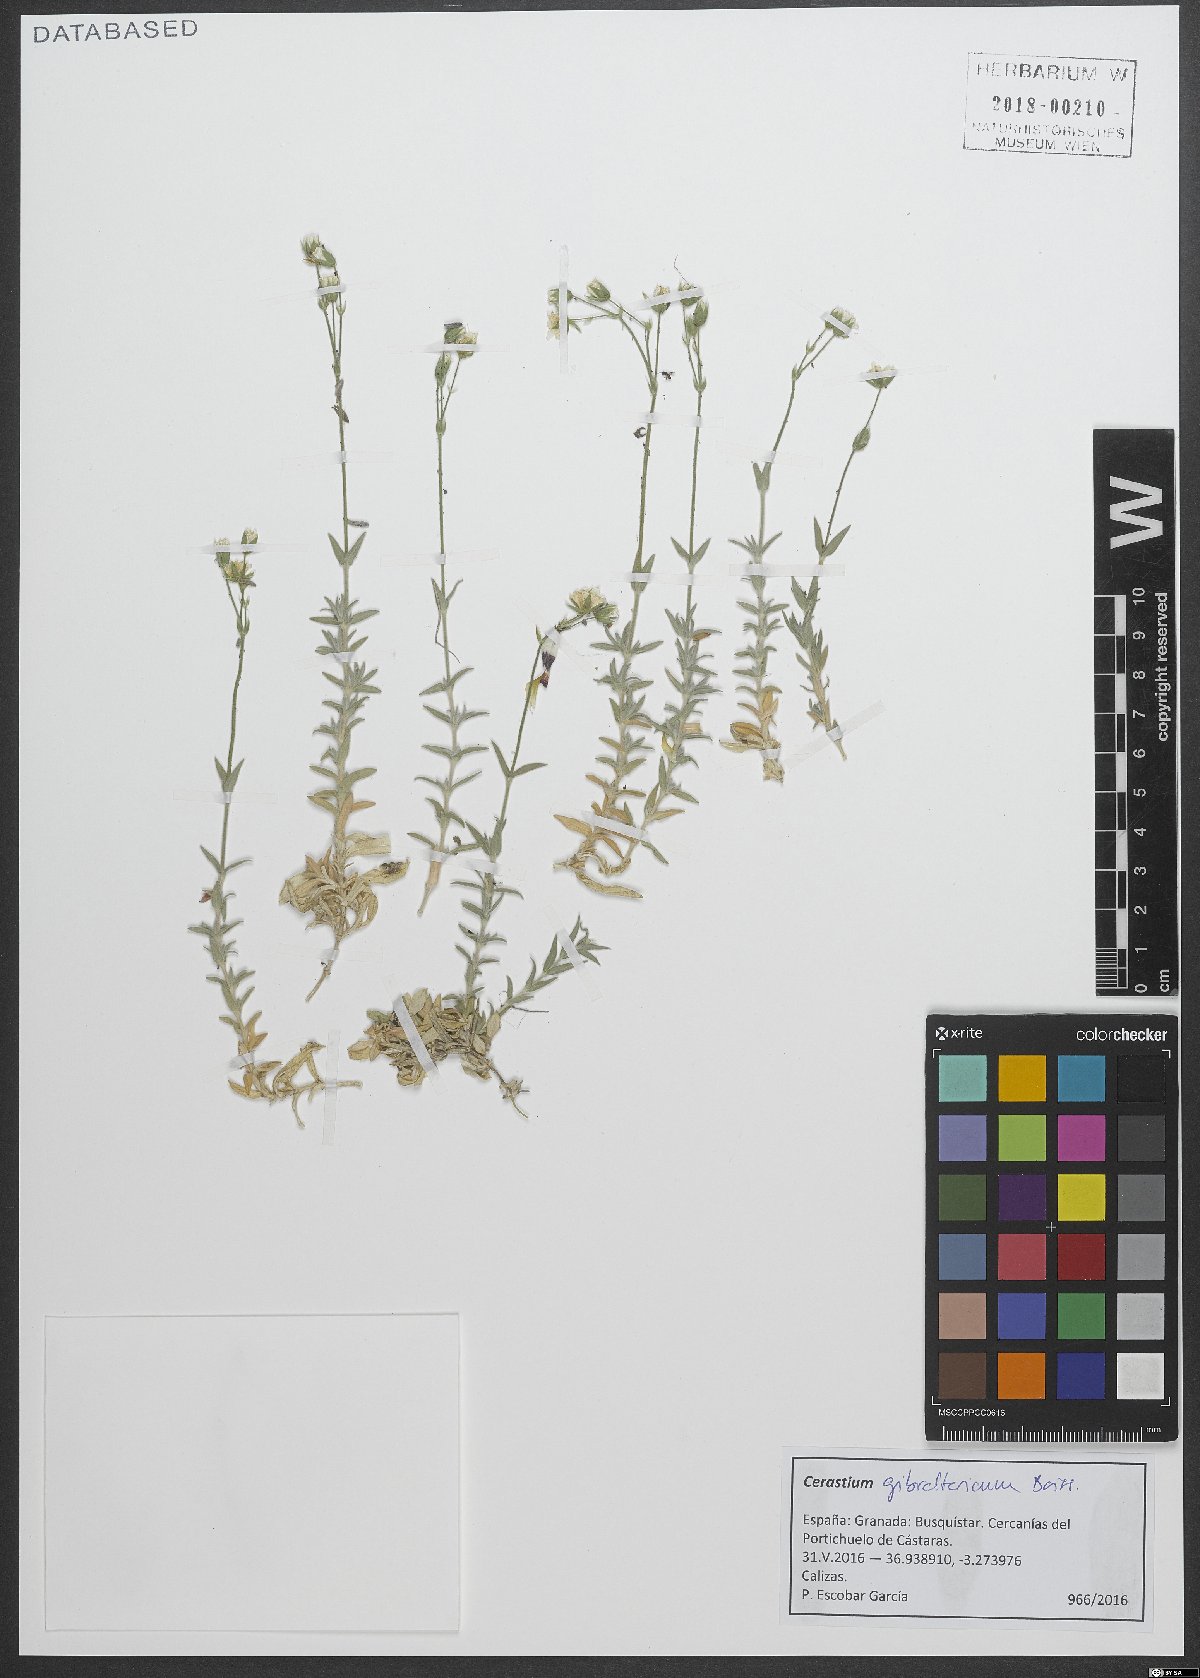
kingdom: Plantae
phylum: Tracheophyta
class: Magnoliopsida
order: Caryophyllales
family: Caryophyllaceae
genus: Cerastium
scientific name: Cerastium gibraltaricum
